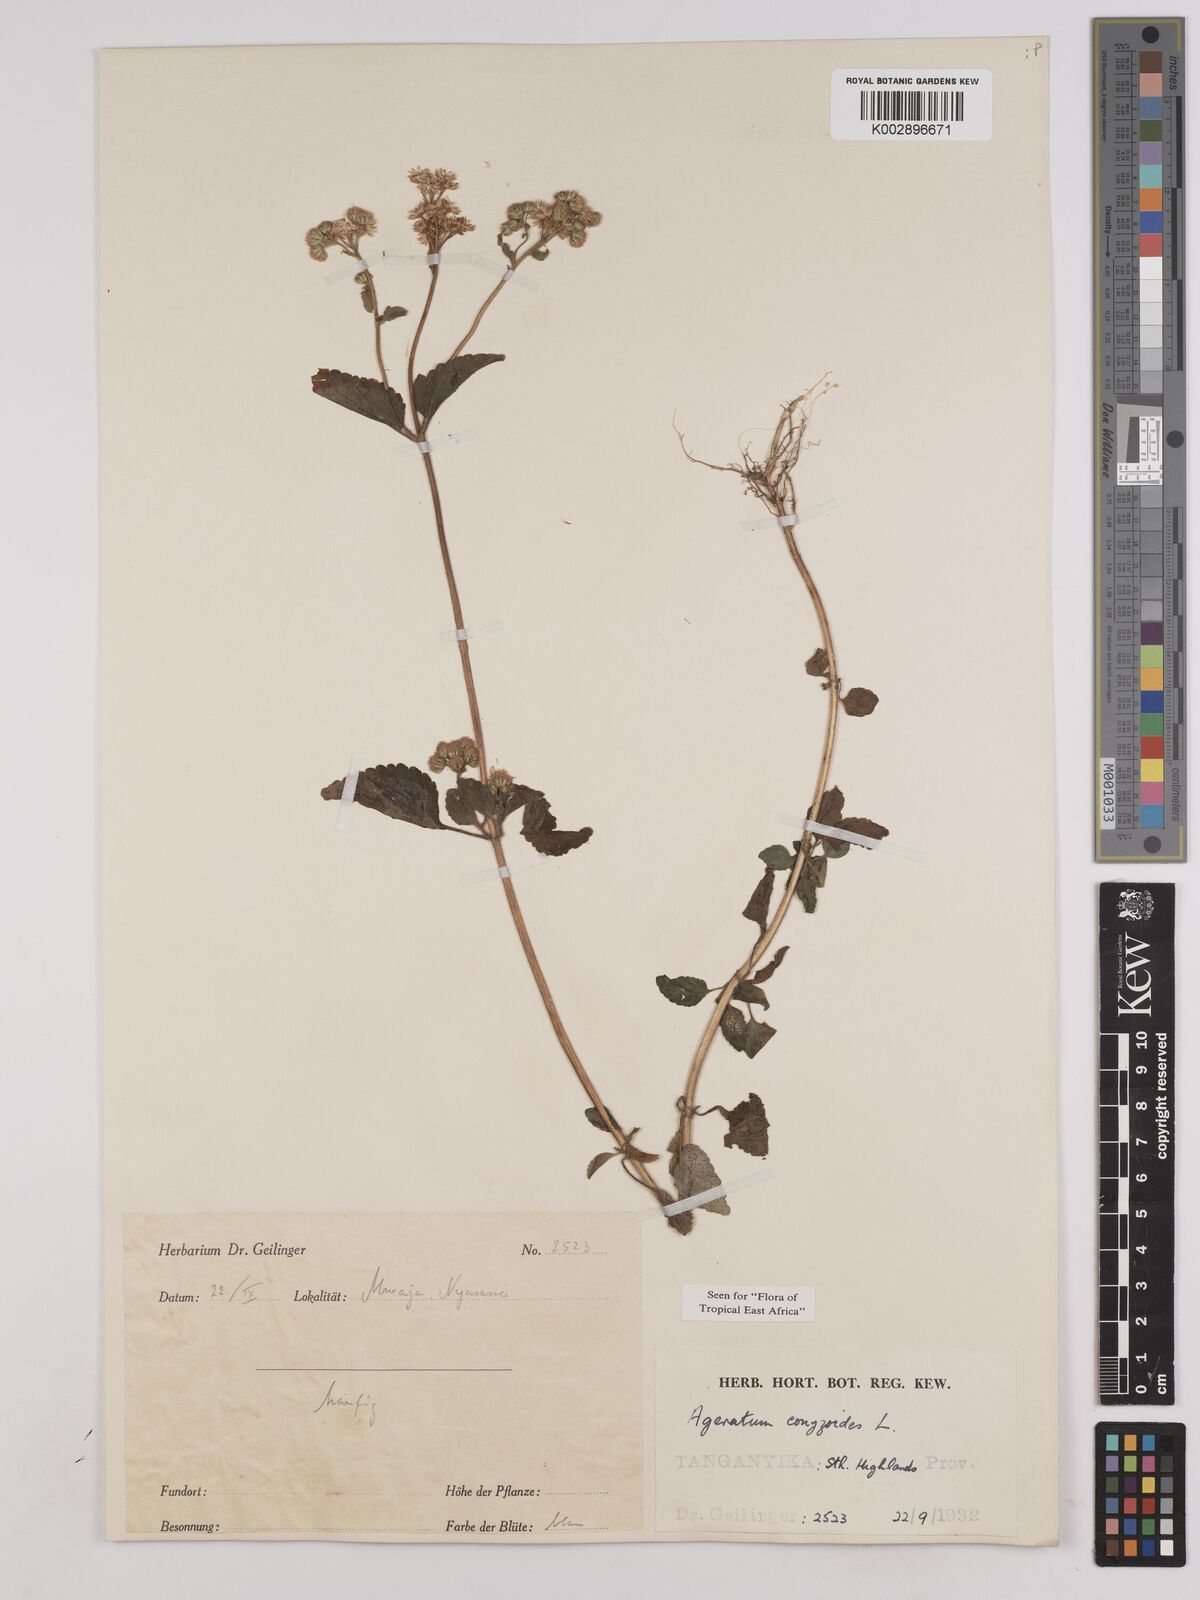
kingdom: Plantae
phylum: Tracheophyta
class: Magnoliopsida
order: Asterales
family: Asteraceae
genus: Ageratum
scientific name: Ageratum conyzoides
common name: Tropical whiteweed
